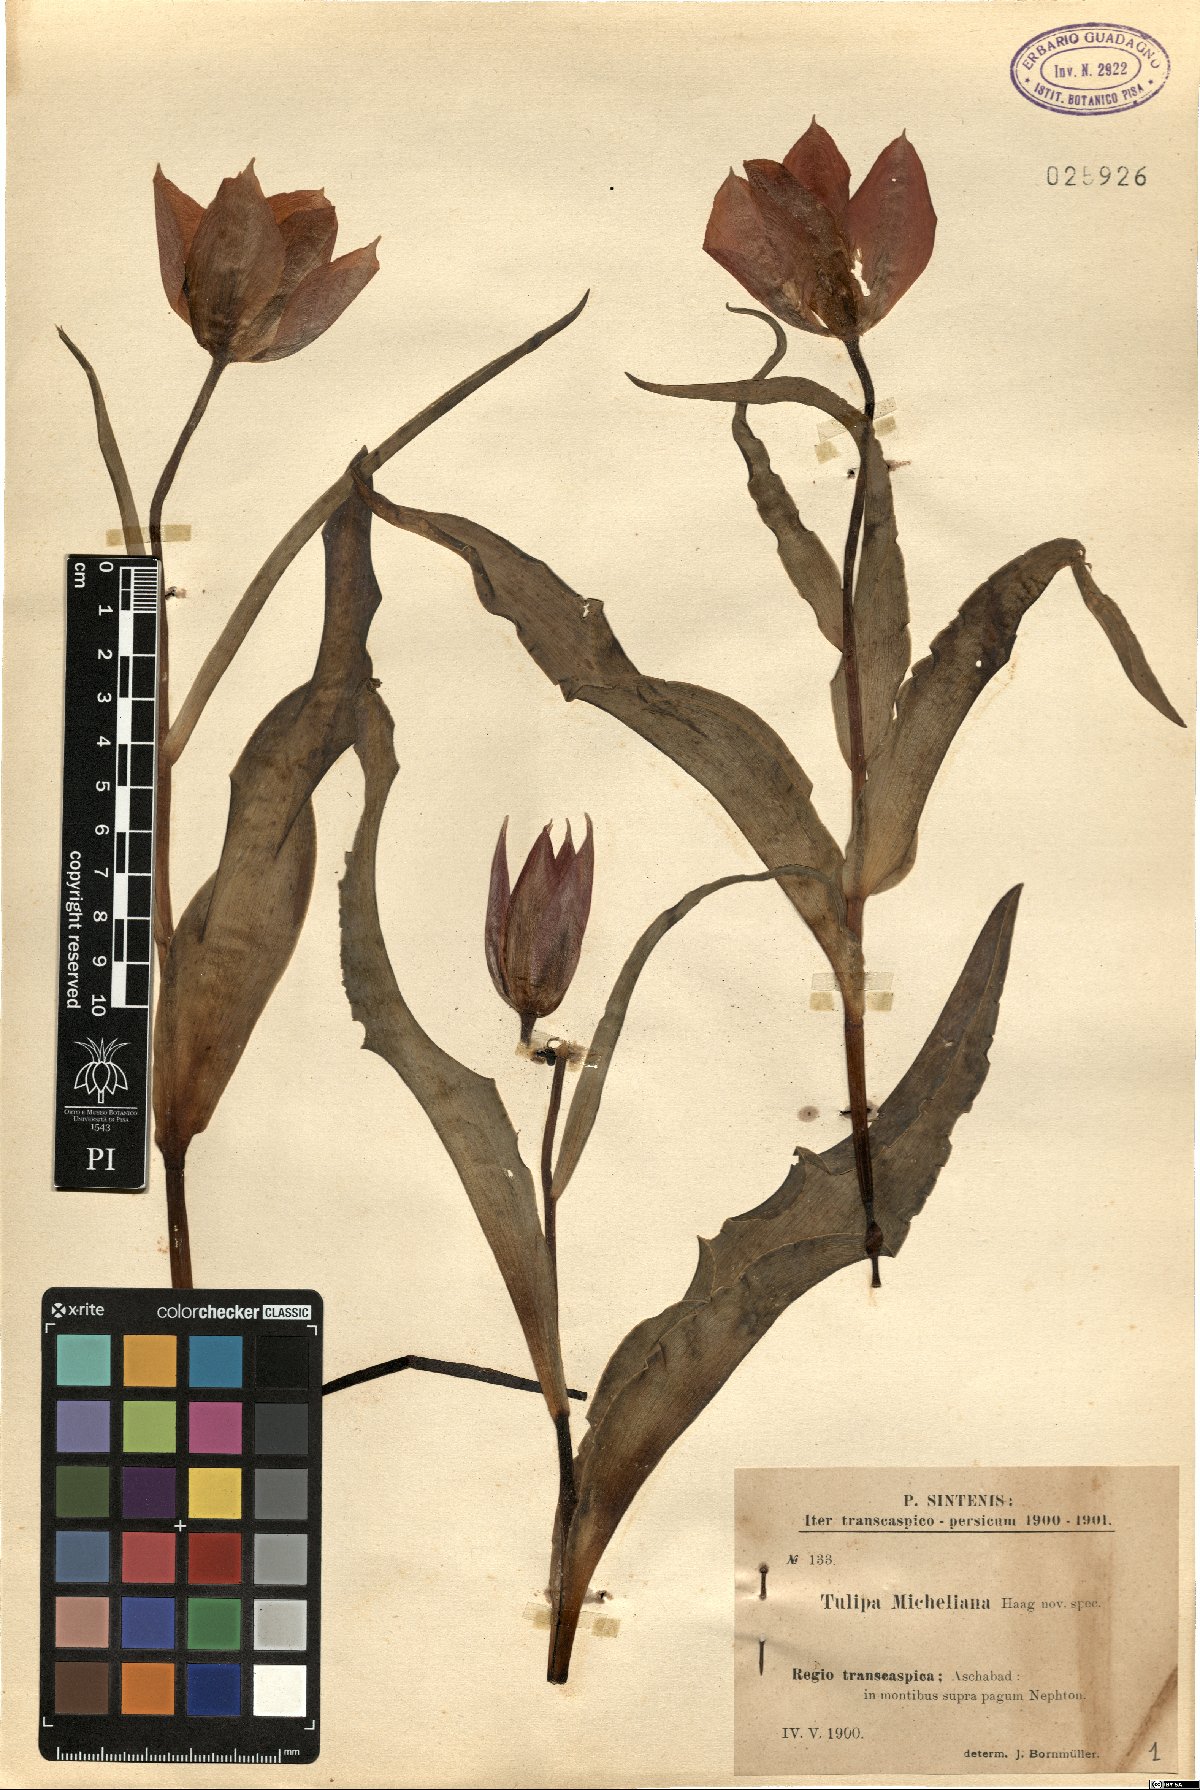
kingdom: Plantae
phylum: Tracheophyta
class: Liliopsida
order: Liliales
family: Liliaceae
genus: Tulipa
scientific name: Tulipa undulatifolia
